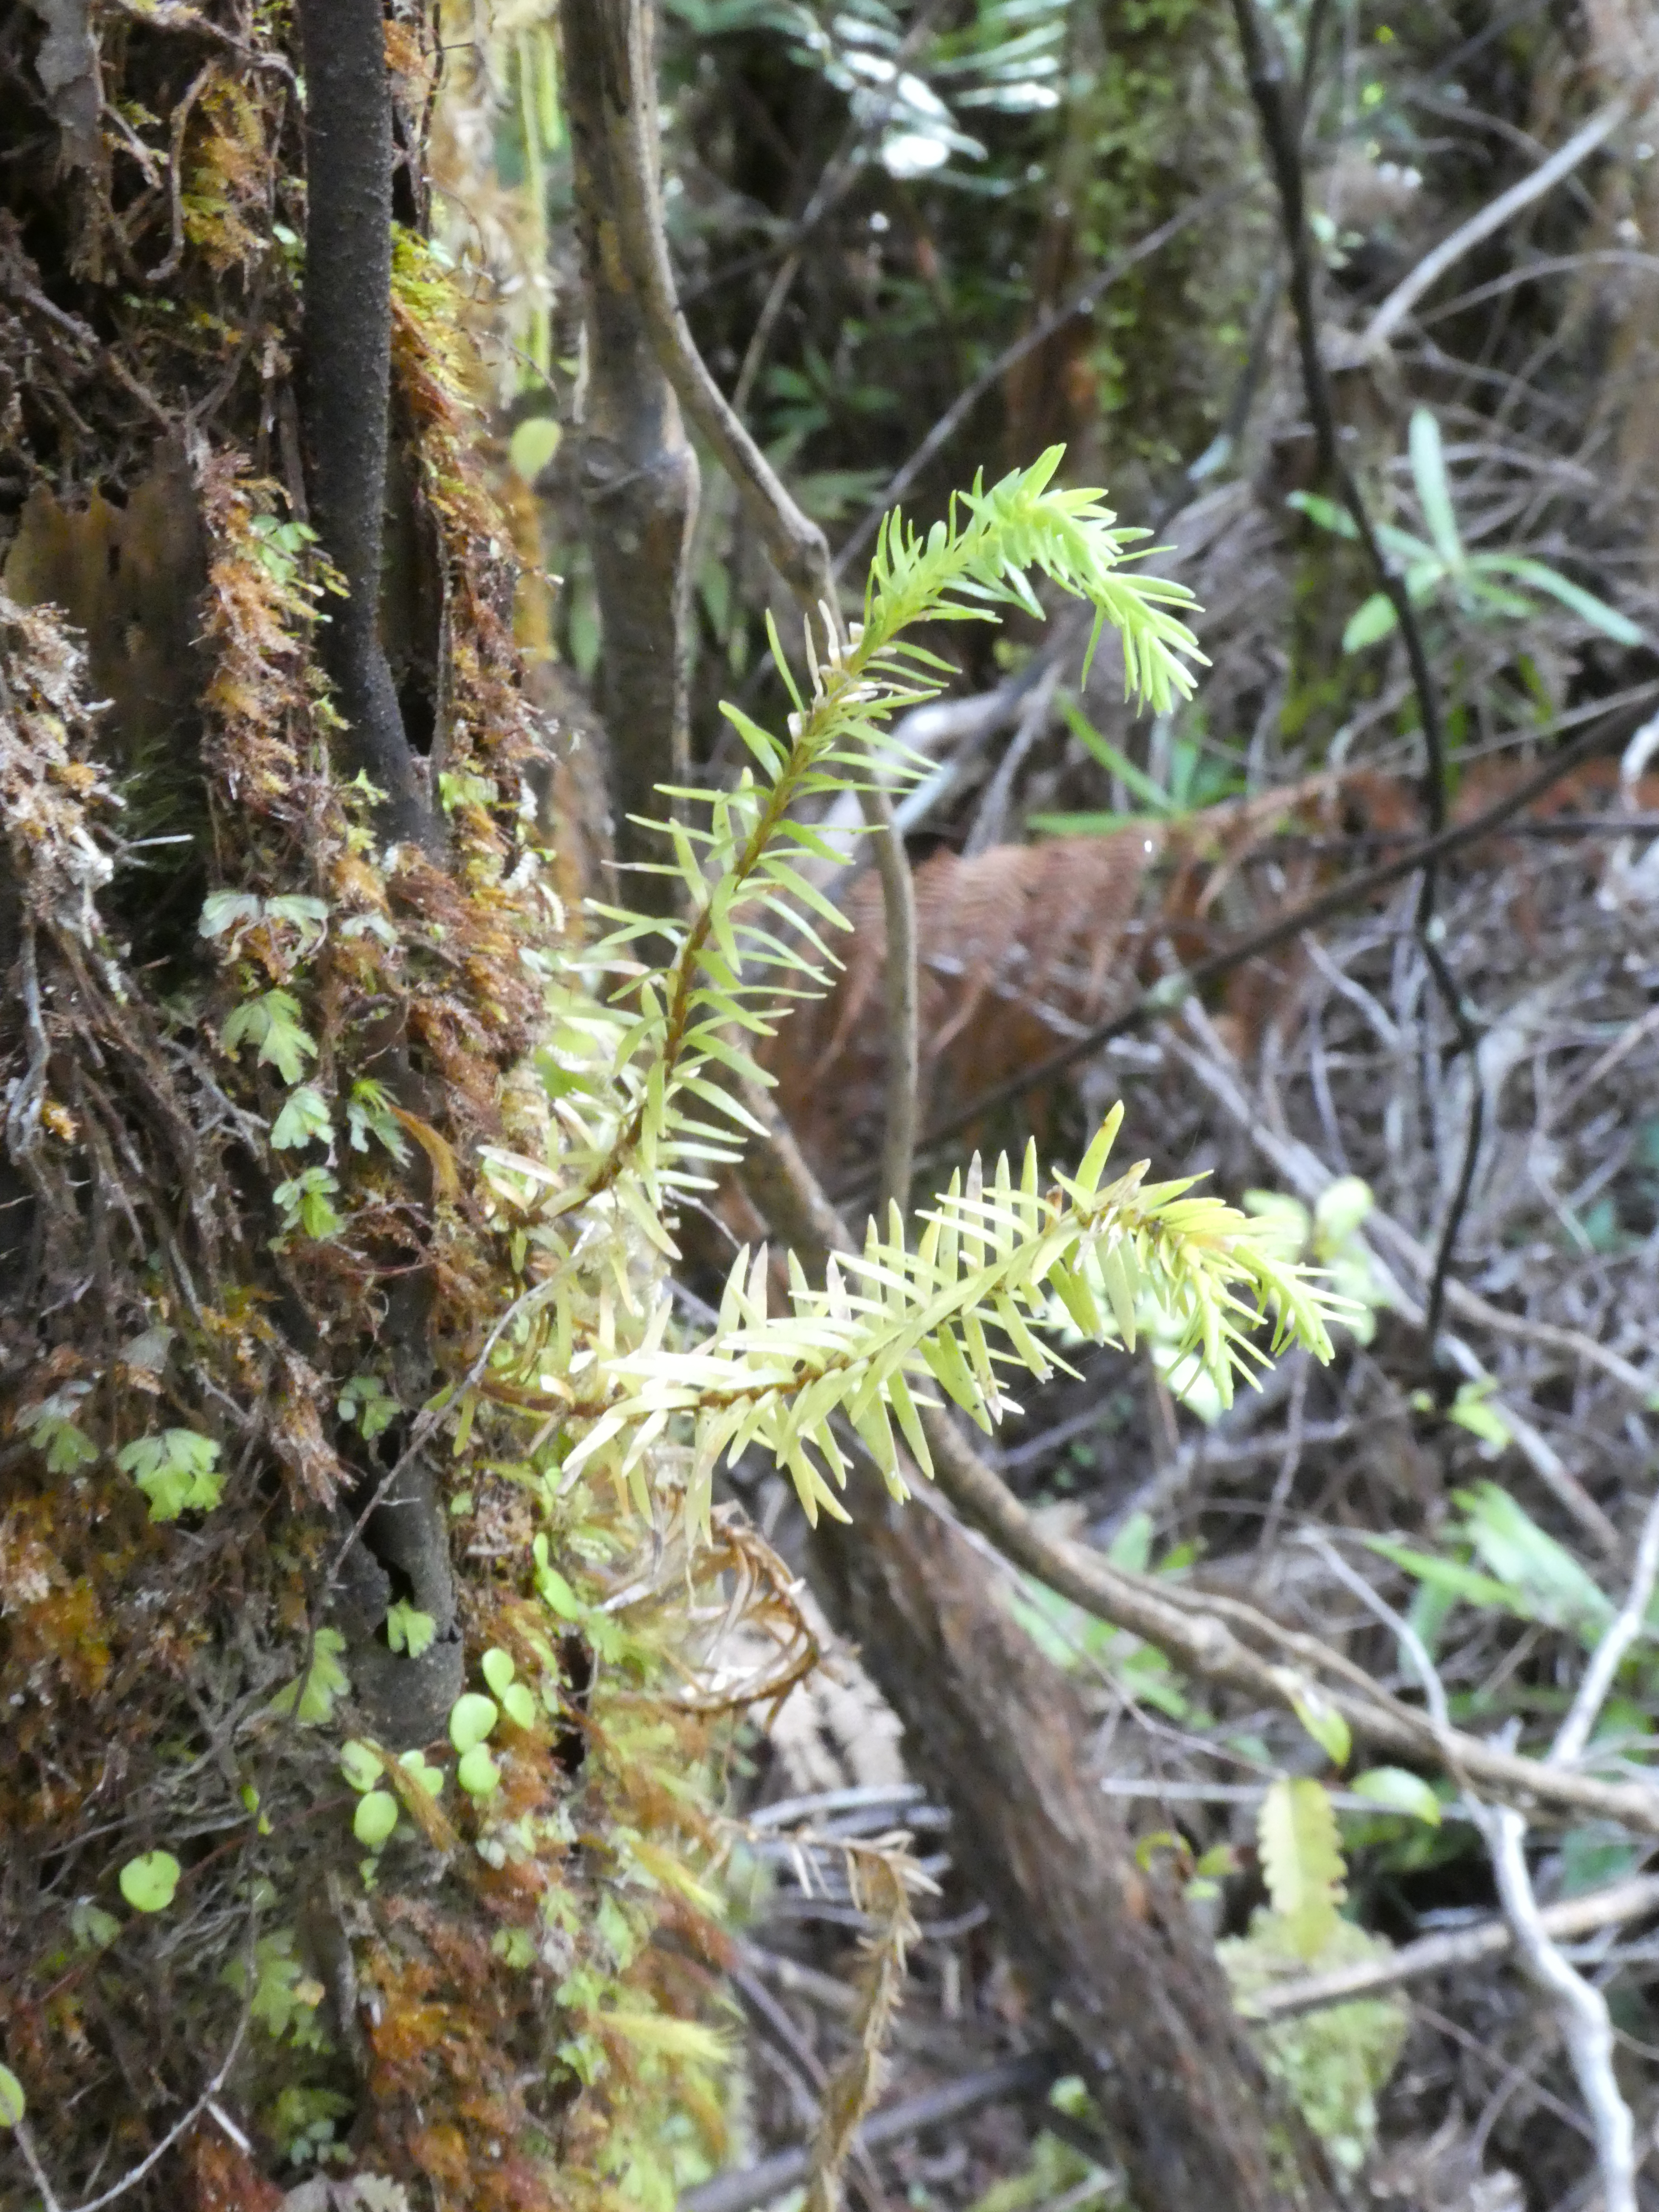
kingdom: Plantae
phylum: Tracheophyta
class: Lycopodiopsida
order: Lycopodiales
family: Lycopodiaceae
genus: Phlegmariurus
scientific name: Phlegmariurus varius
